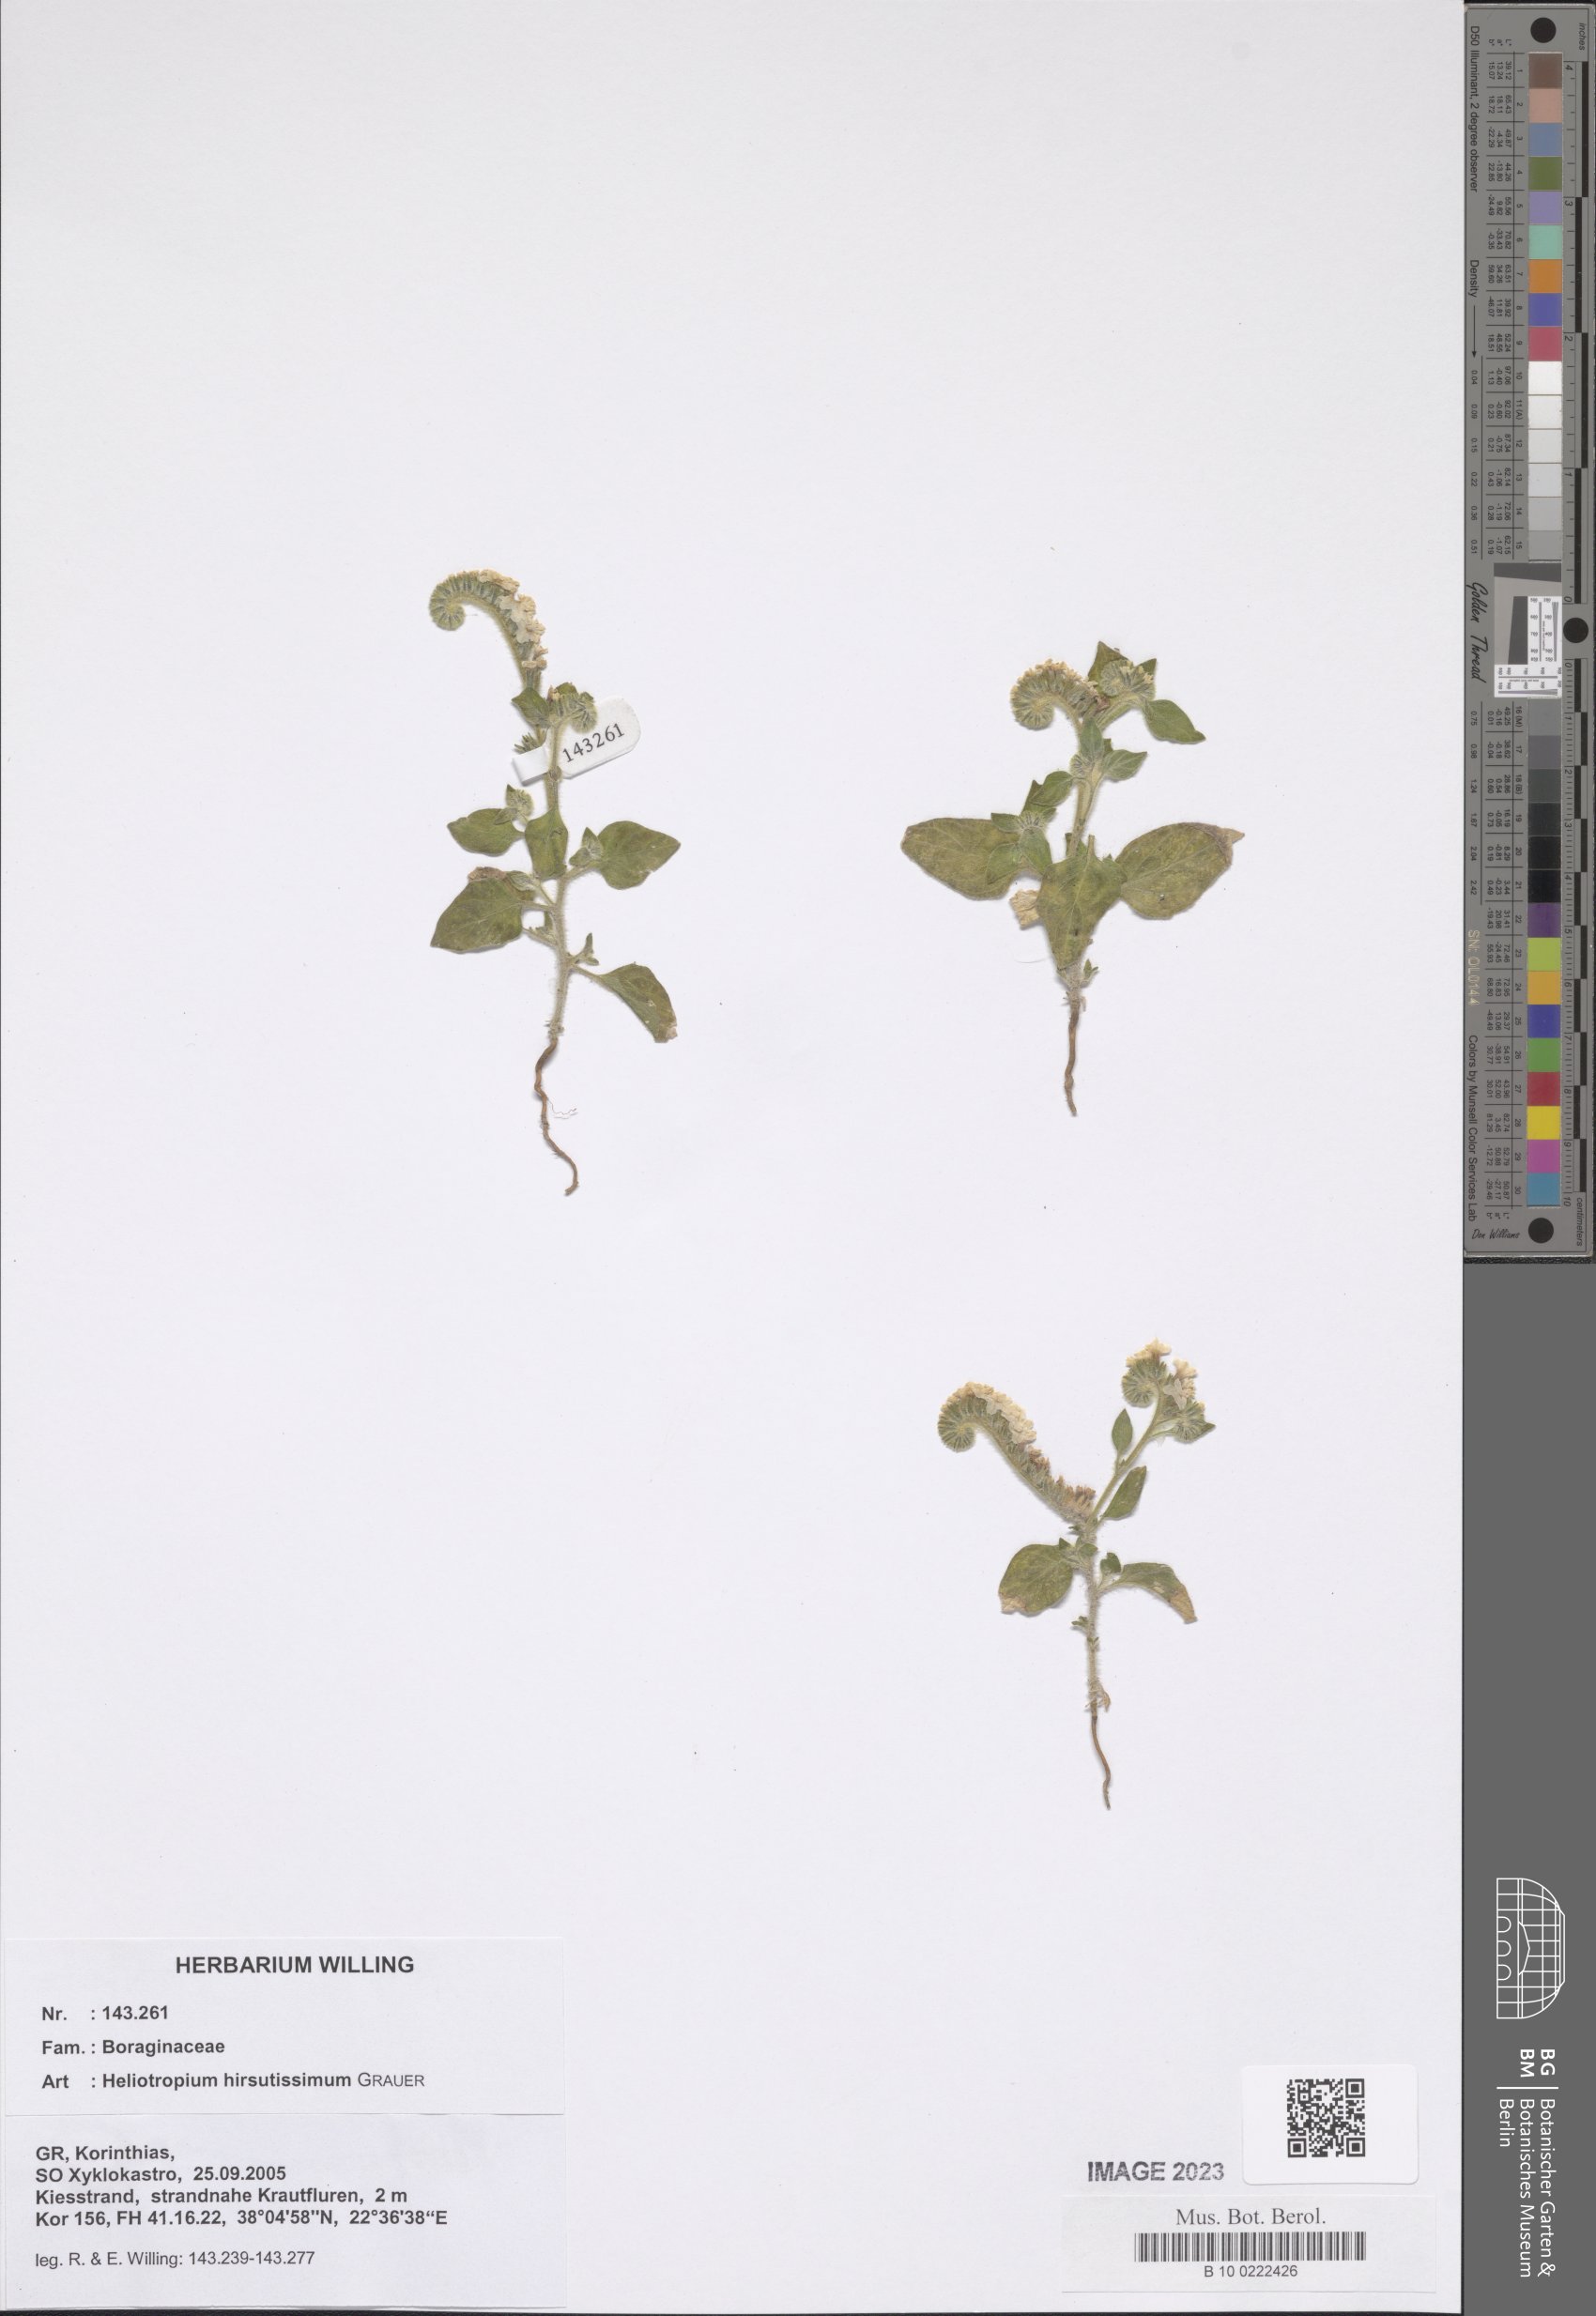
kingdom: Plantae
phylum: Tracheophyta
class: Magnoliopsida
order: Boraginales
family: Heliotropiaceae
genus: Heliotropium
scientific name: Heliotropium hirsutissimum
